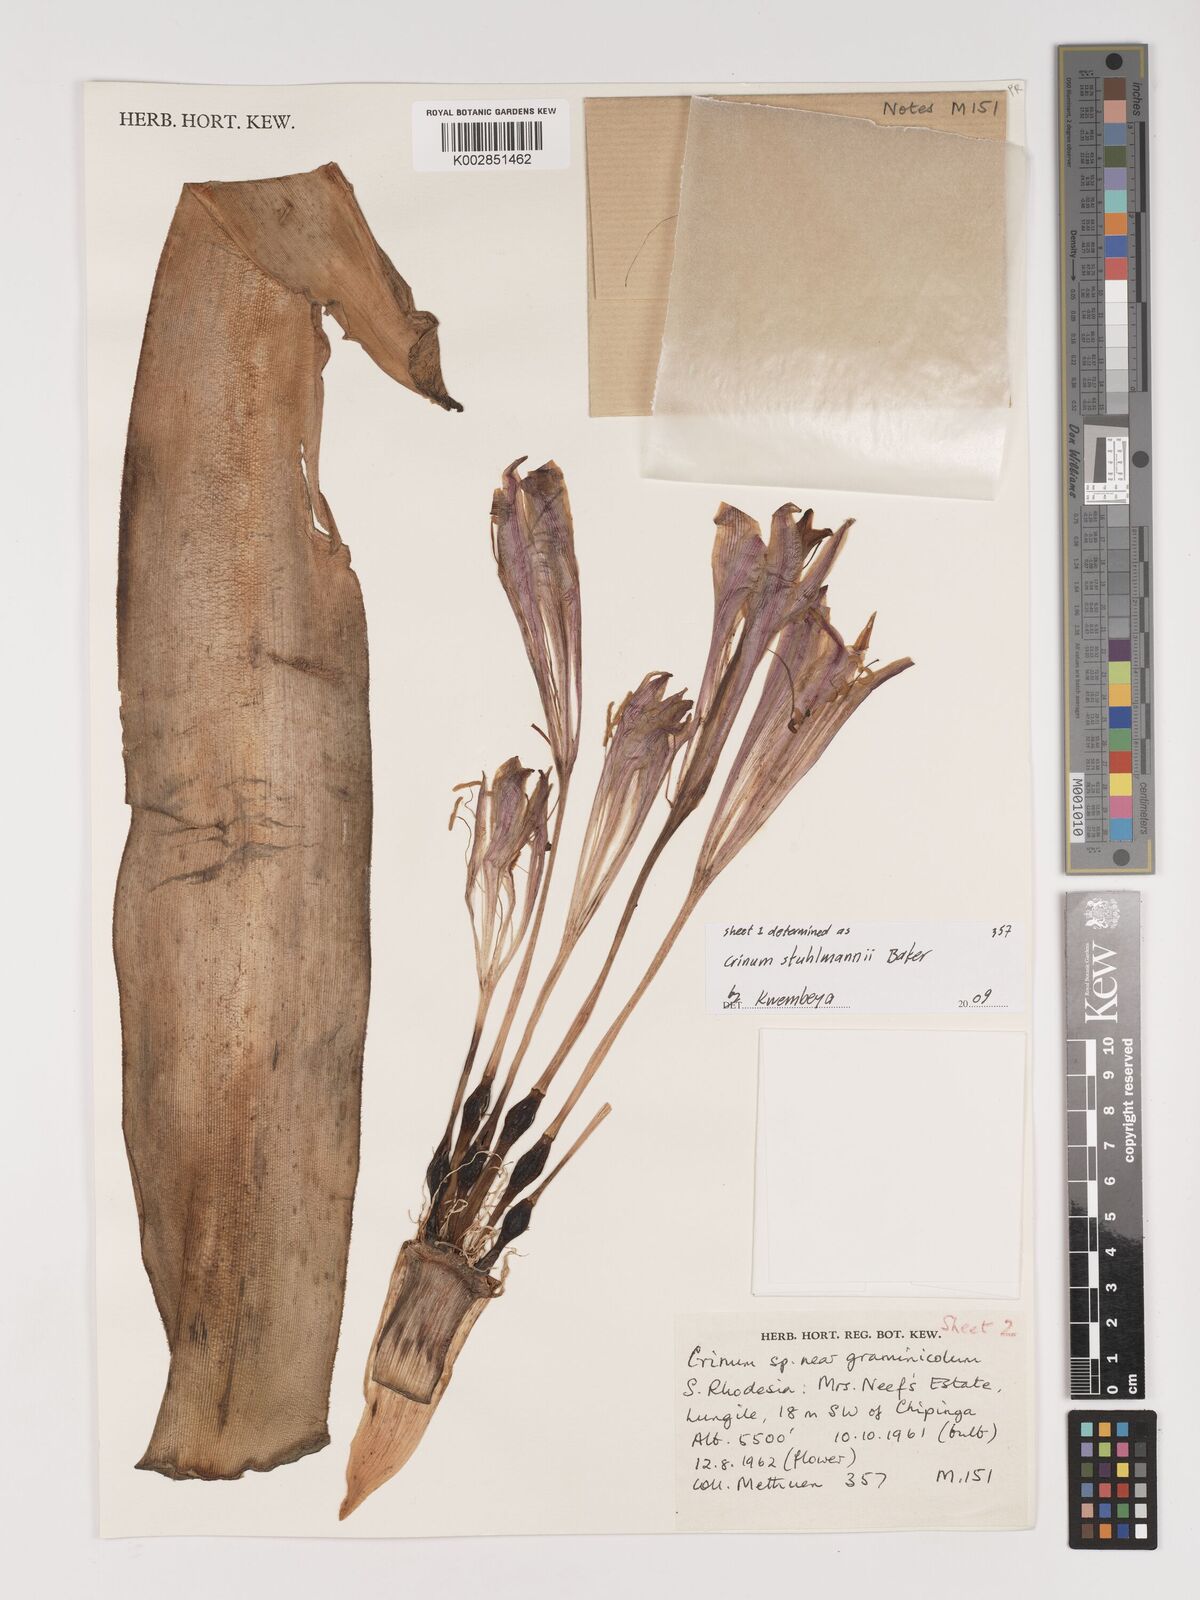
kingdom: Plantae
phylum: Tracheophyta
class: Liliopsida
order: Asparagales
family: Amaryllidaceae
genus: Crinum
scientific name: Crinum stuhlmannii
